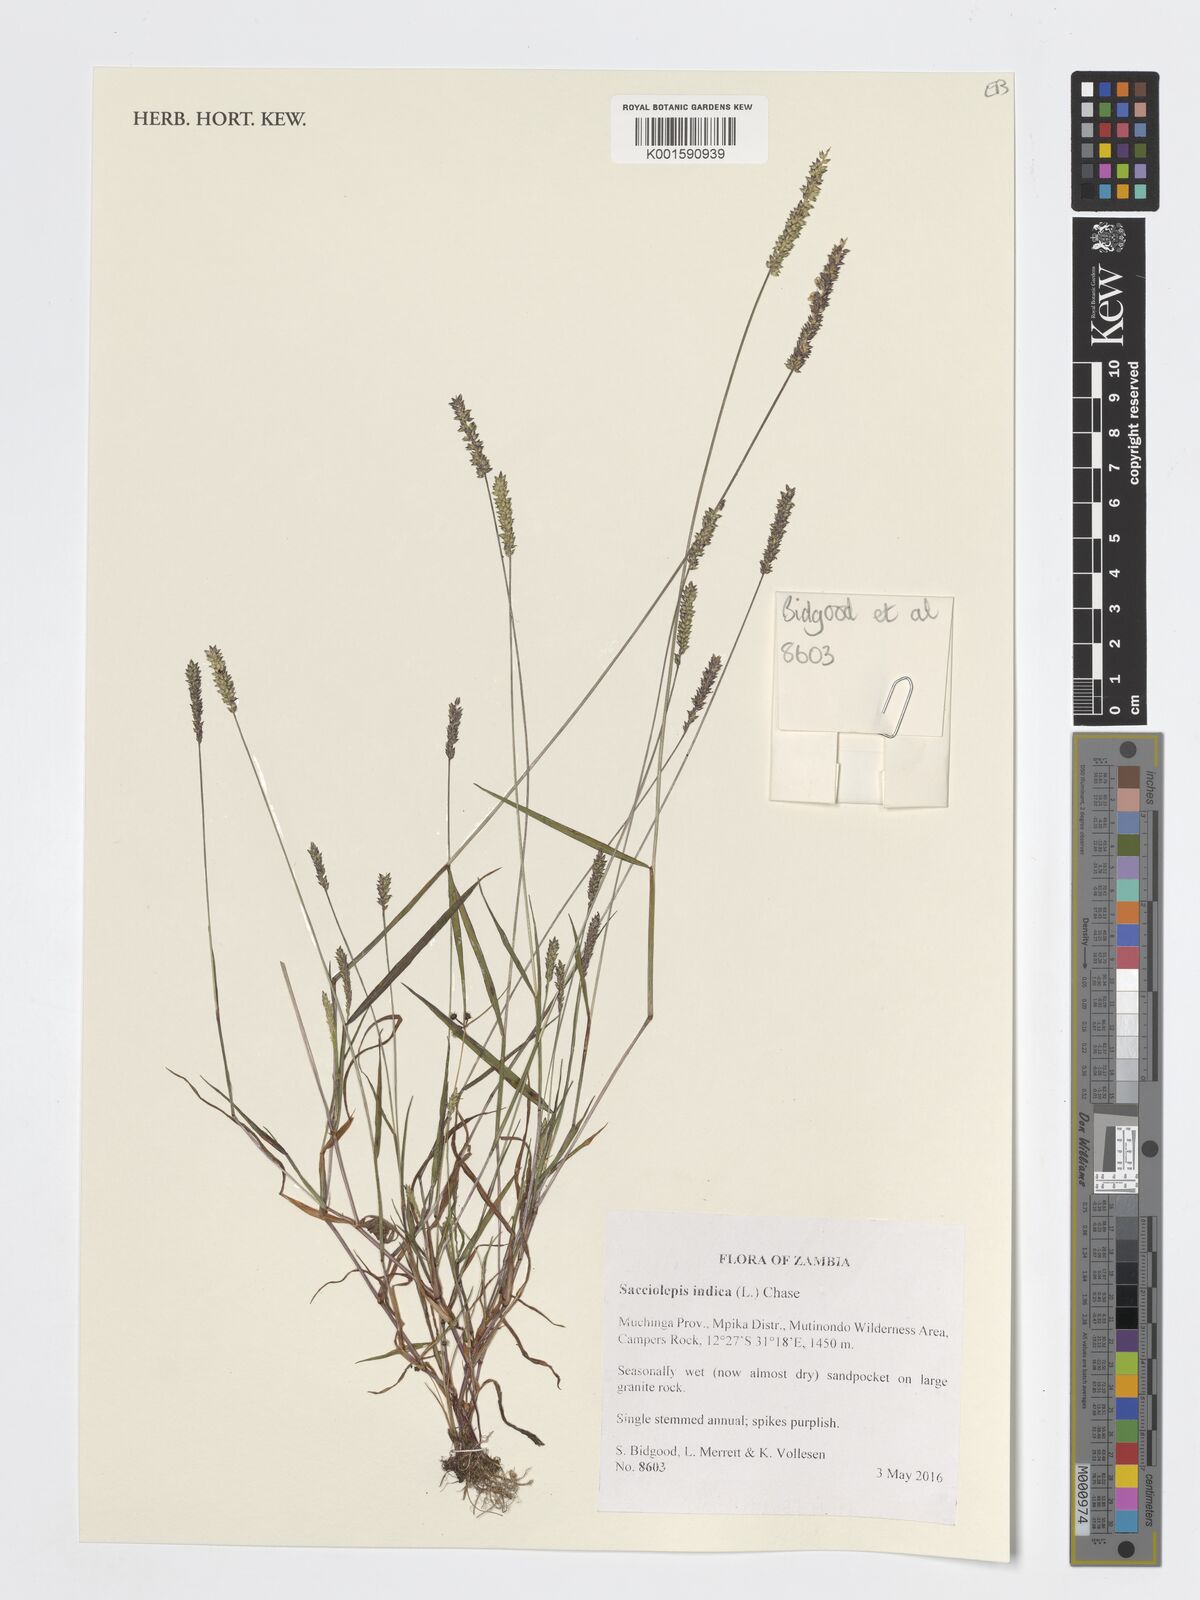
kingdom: Plantae
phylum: Tracheophyta
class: Liliopsida
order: Poales
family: Poaceae
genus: Sacciolepis
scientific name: Sacciolepis indica
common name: Glenwoodgrass
